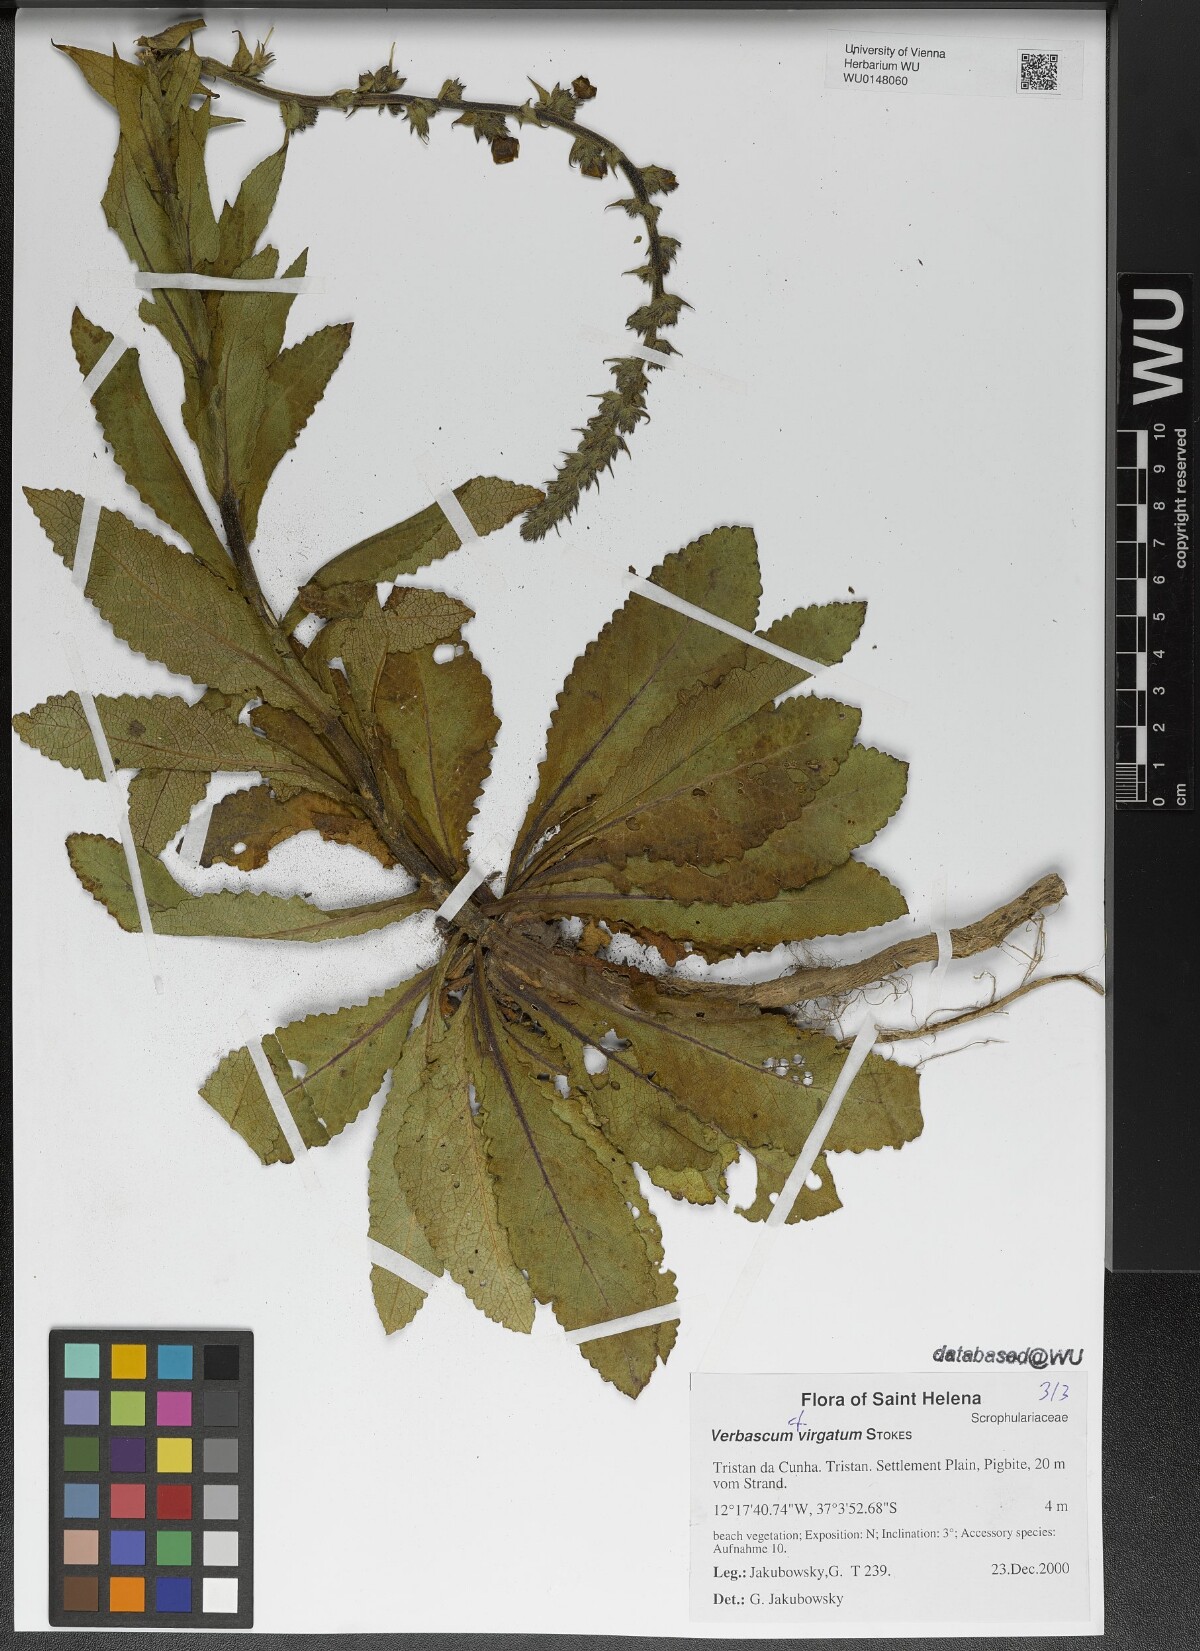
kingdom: Plantae
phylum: Tracheophyta
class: Magnoliopsida
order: Lamiales
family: Scrophulariaceae
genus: Verbascum
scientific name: Verbascum virgatum
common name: Twiggy mullein
